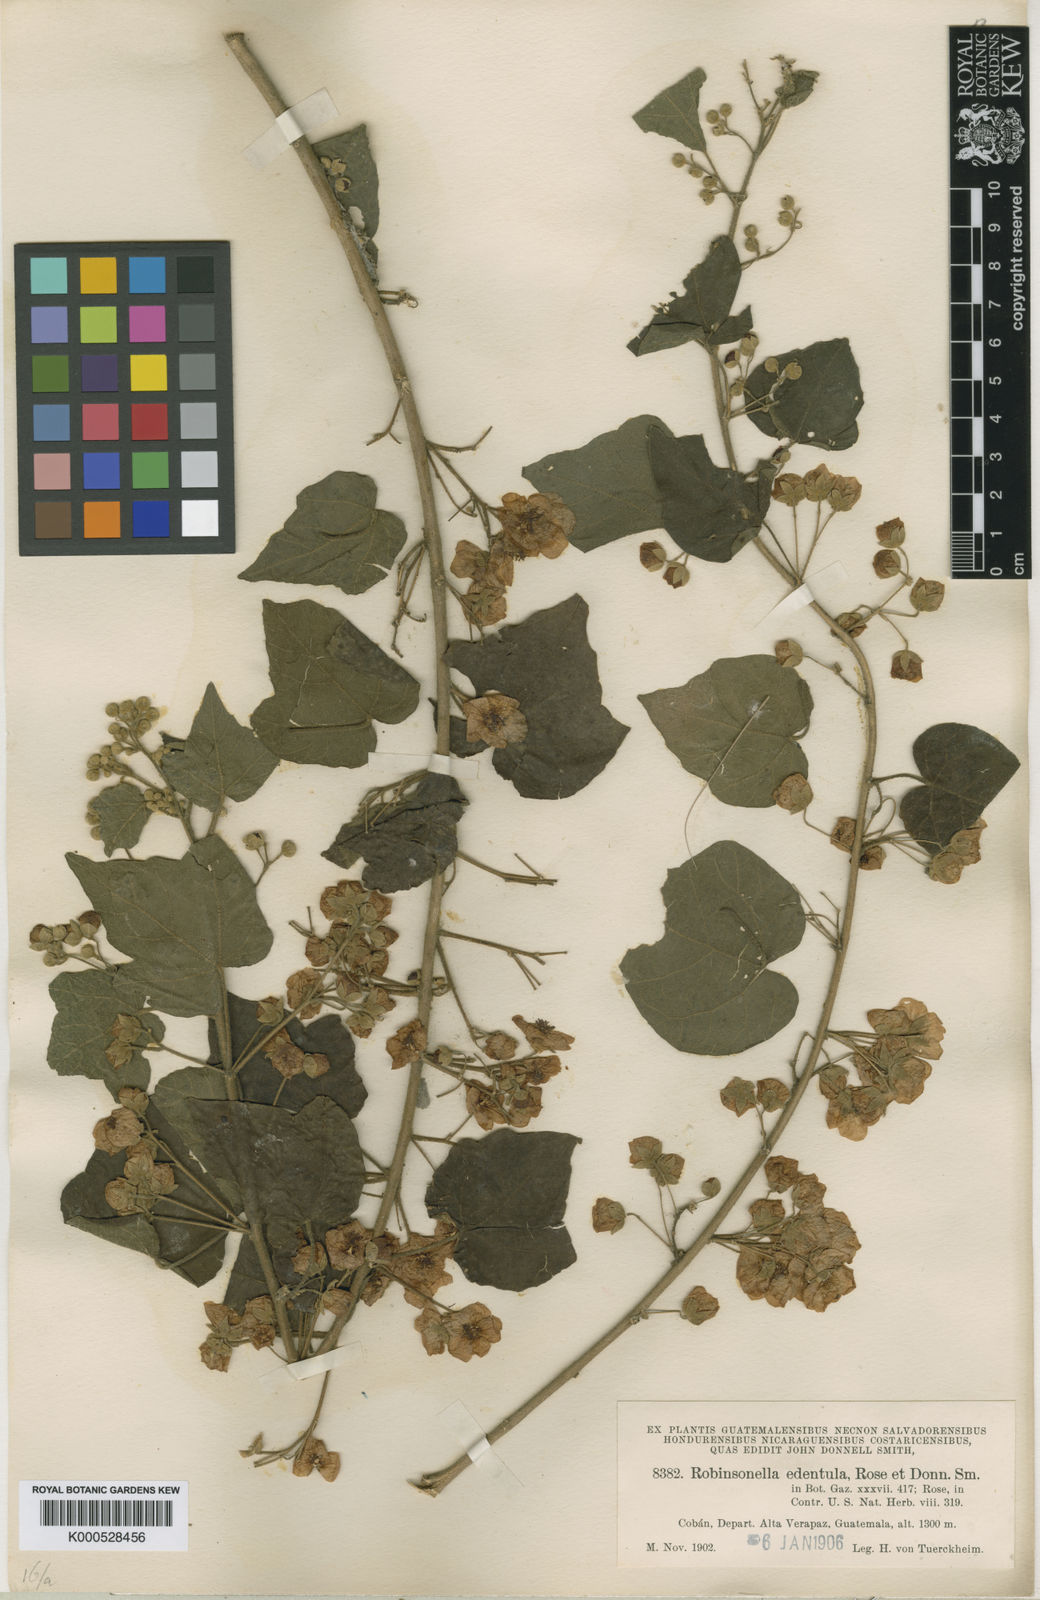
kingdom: Plantae
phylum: Tracheophyta
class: Magnoliopsida
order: Malvales
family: Malvaceae
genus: Robinsonella
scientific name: Robinsonella lindeniana
